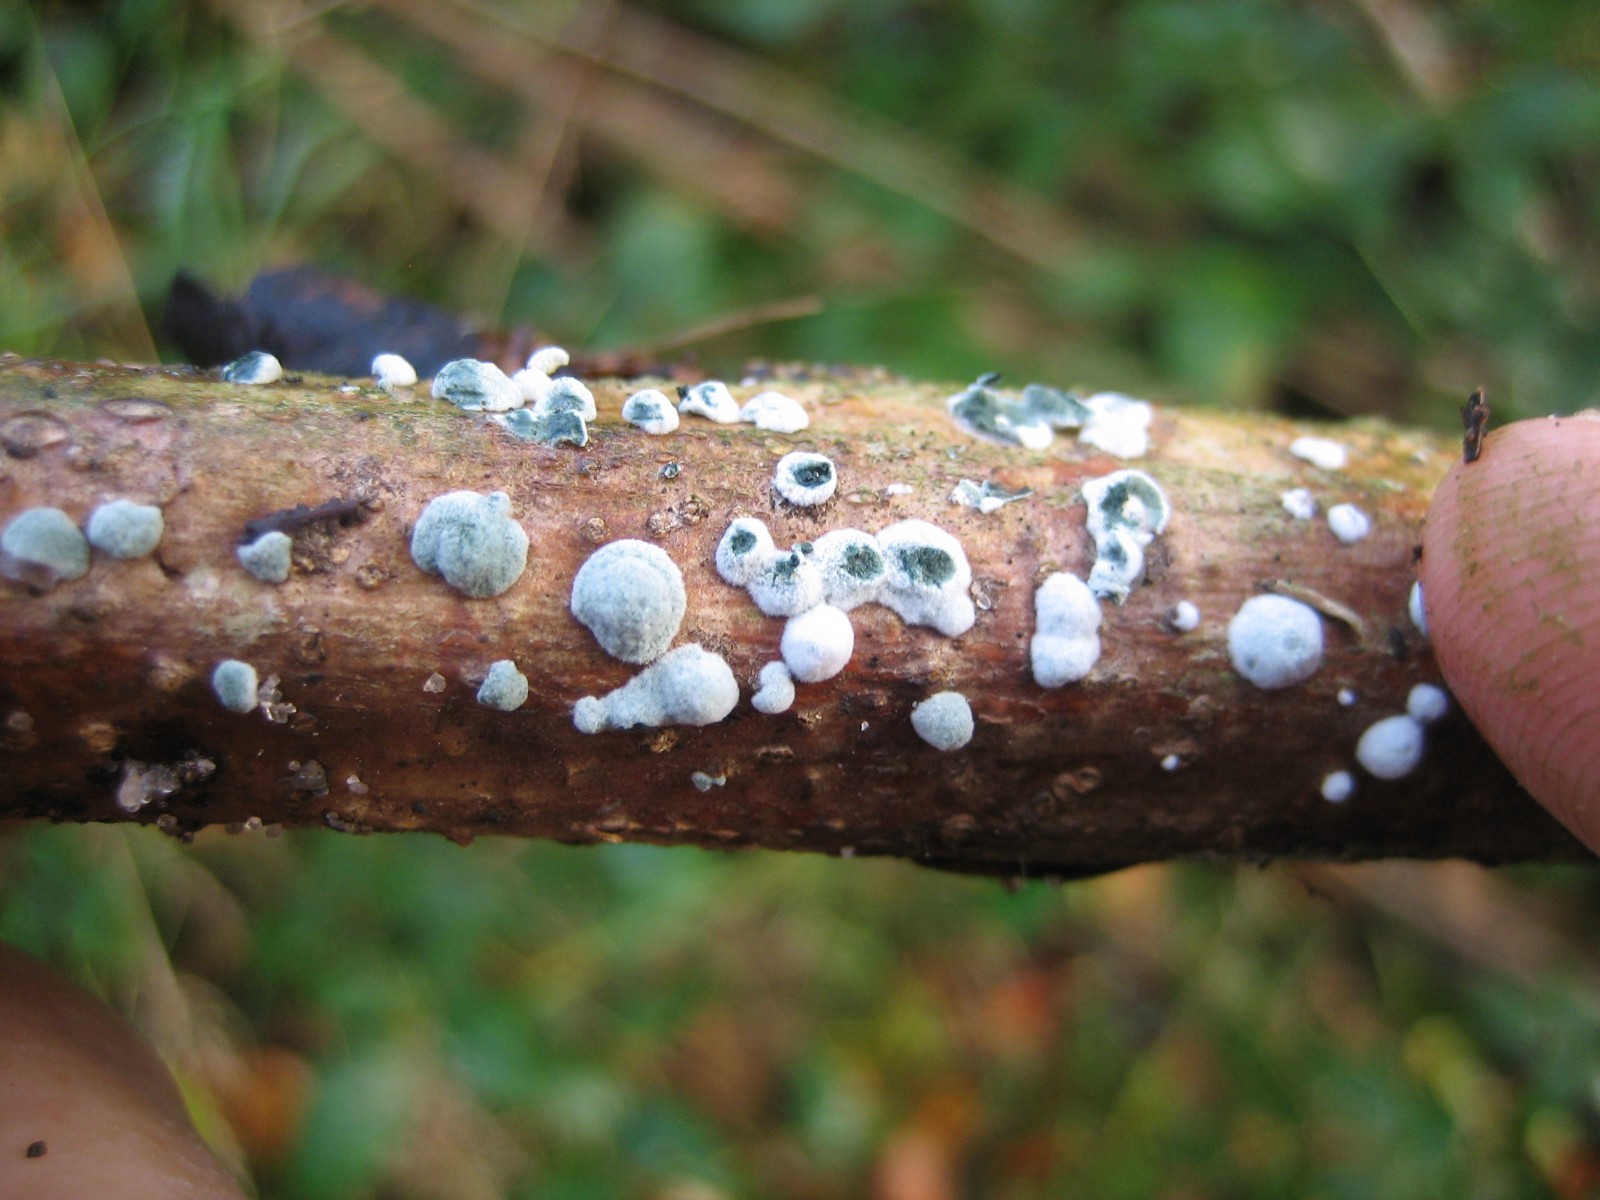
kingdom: Fungi
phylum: Ascomycota
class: Sordariomycetes
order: Hypocreales
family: Hypocreaceae
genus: Trichoderma
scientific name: Trichoderma
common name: kødkerne
